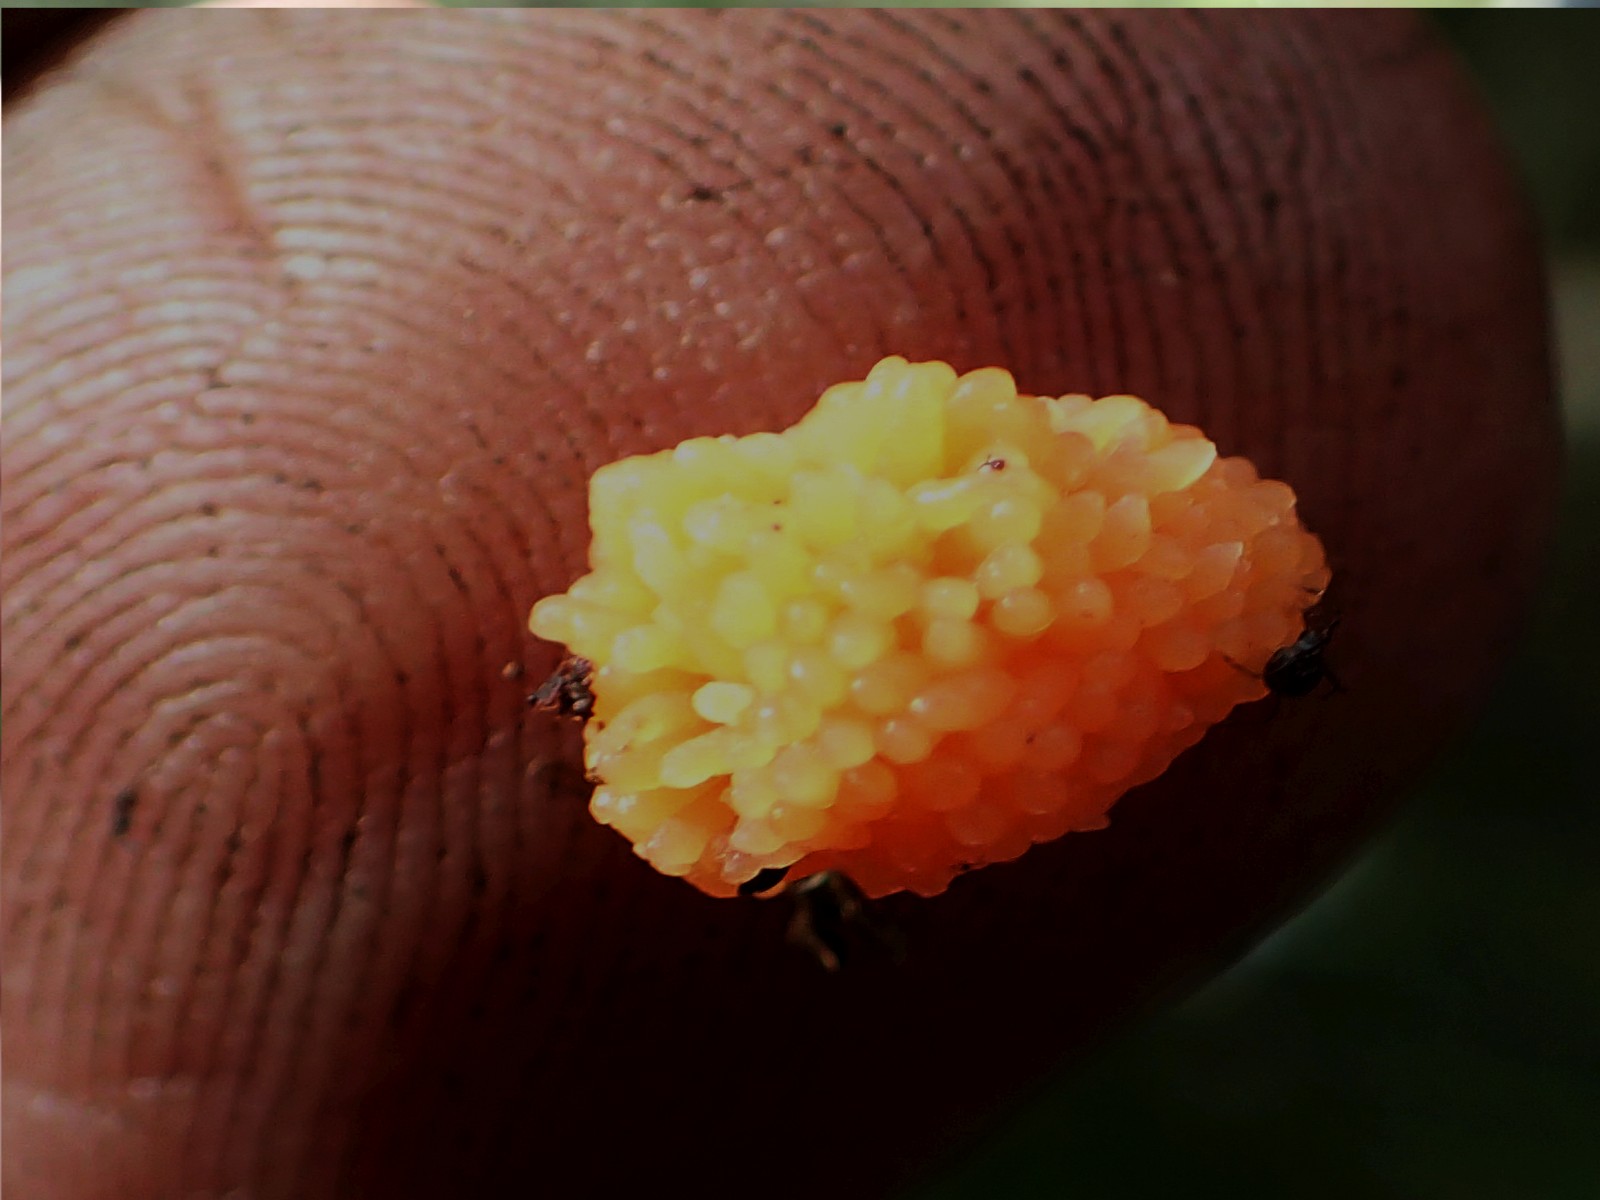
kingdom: Protozoa
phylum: Mycetozoa
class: Myxomycetes
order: Cribrariales
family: Tubiferaceae
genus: Tubifera
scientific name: Tubifera
